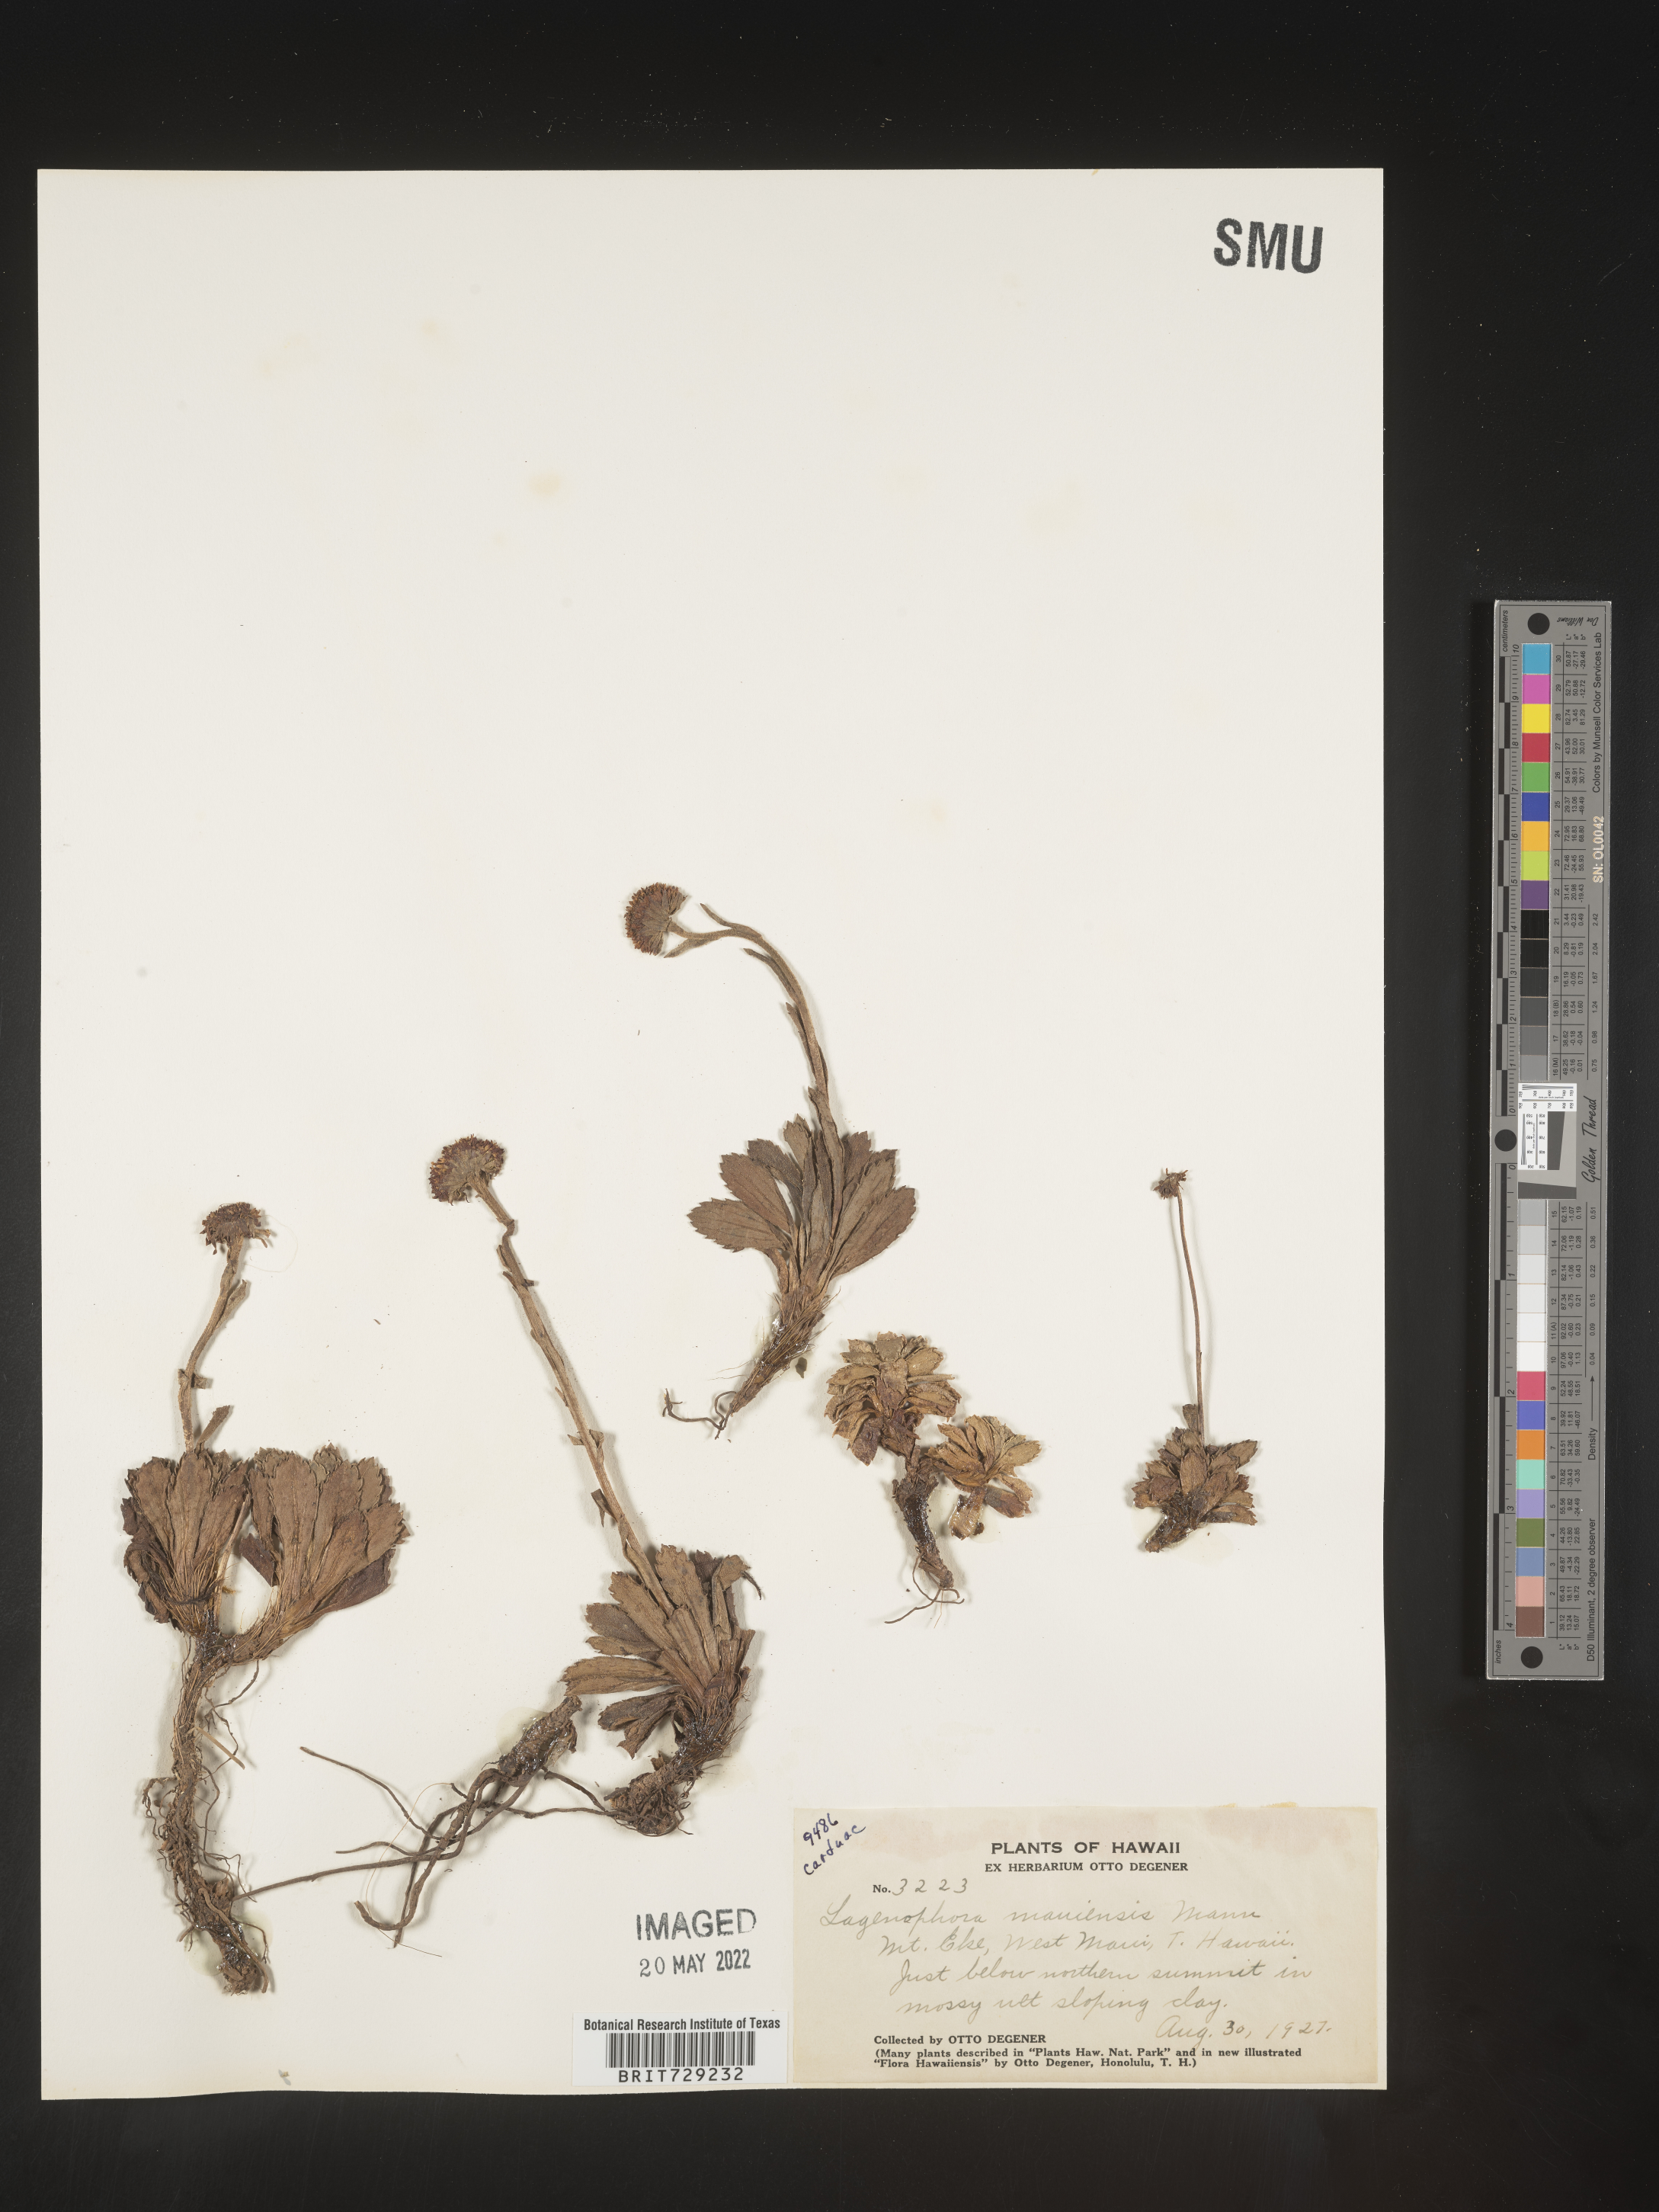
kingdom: Plantae
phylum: Tracheophyta
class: Magnoliopsida
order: Asterales
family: Asteraceae
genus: Lagenophora
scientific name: Lagenophora
